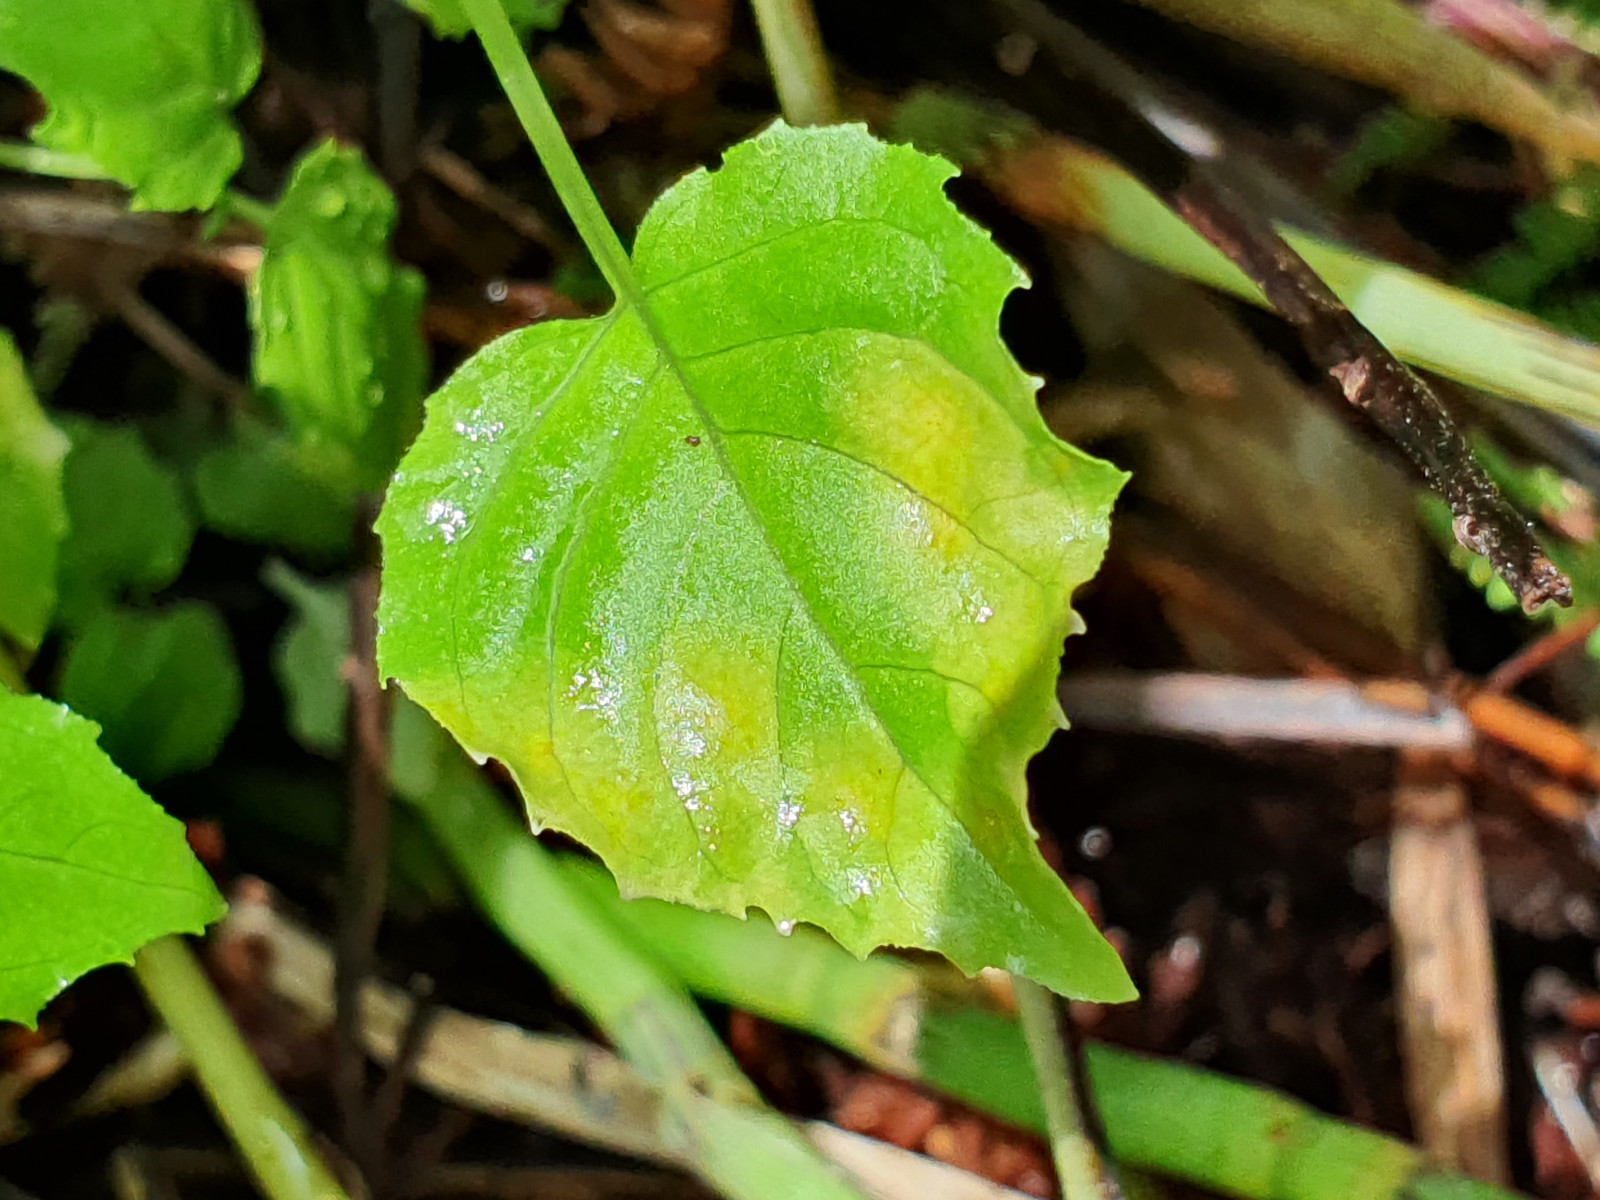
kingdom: Fungi
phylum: Basidiomycota
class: Pucciniomycetes
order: Pucciniales
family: Pucciniaceae
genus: Puccinia
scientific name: Puccinia circaeae-caricis
